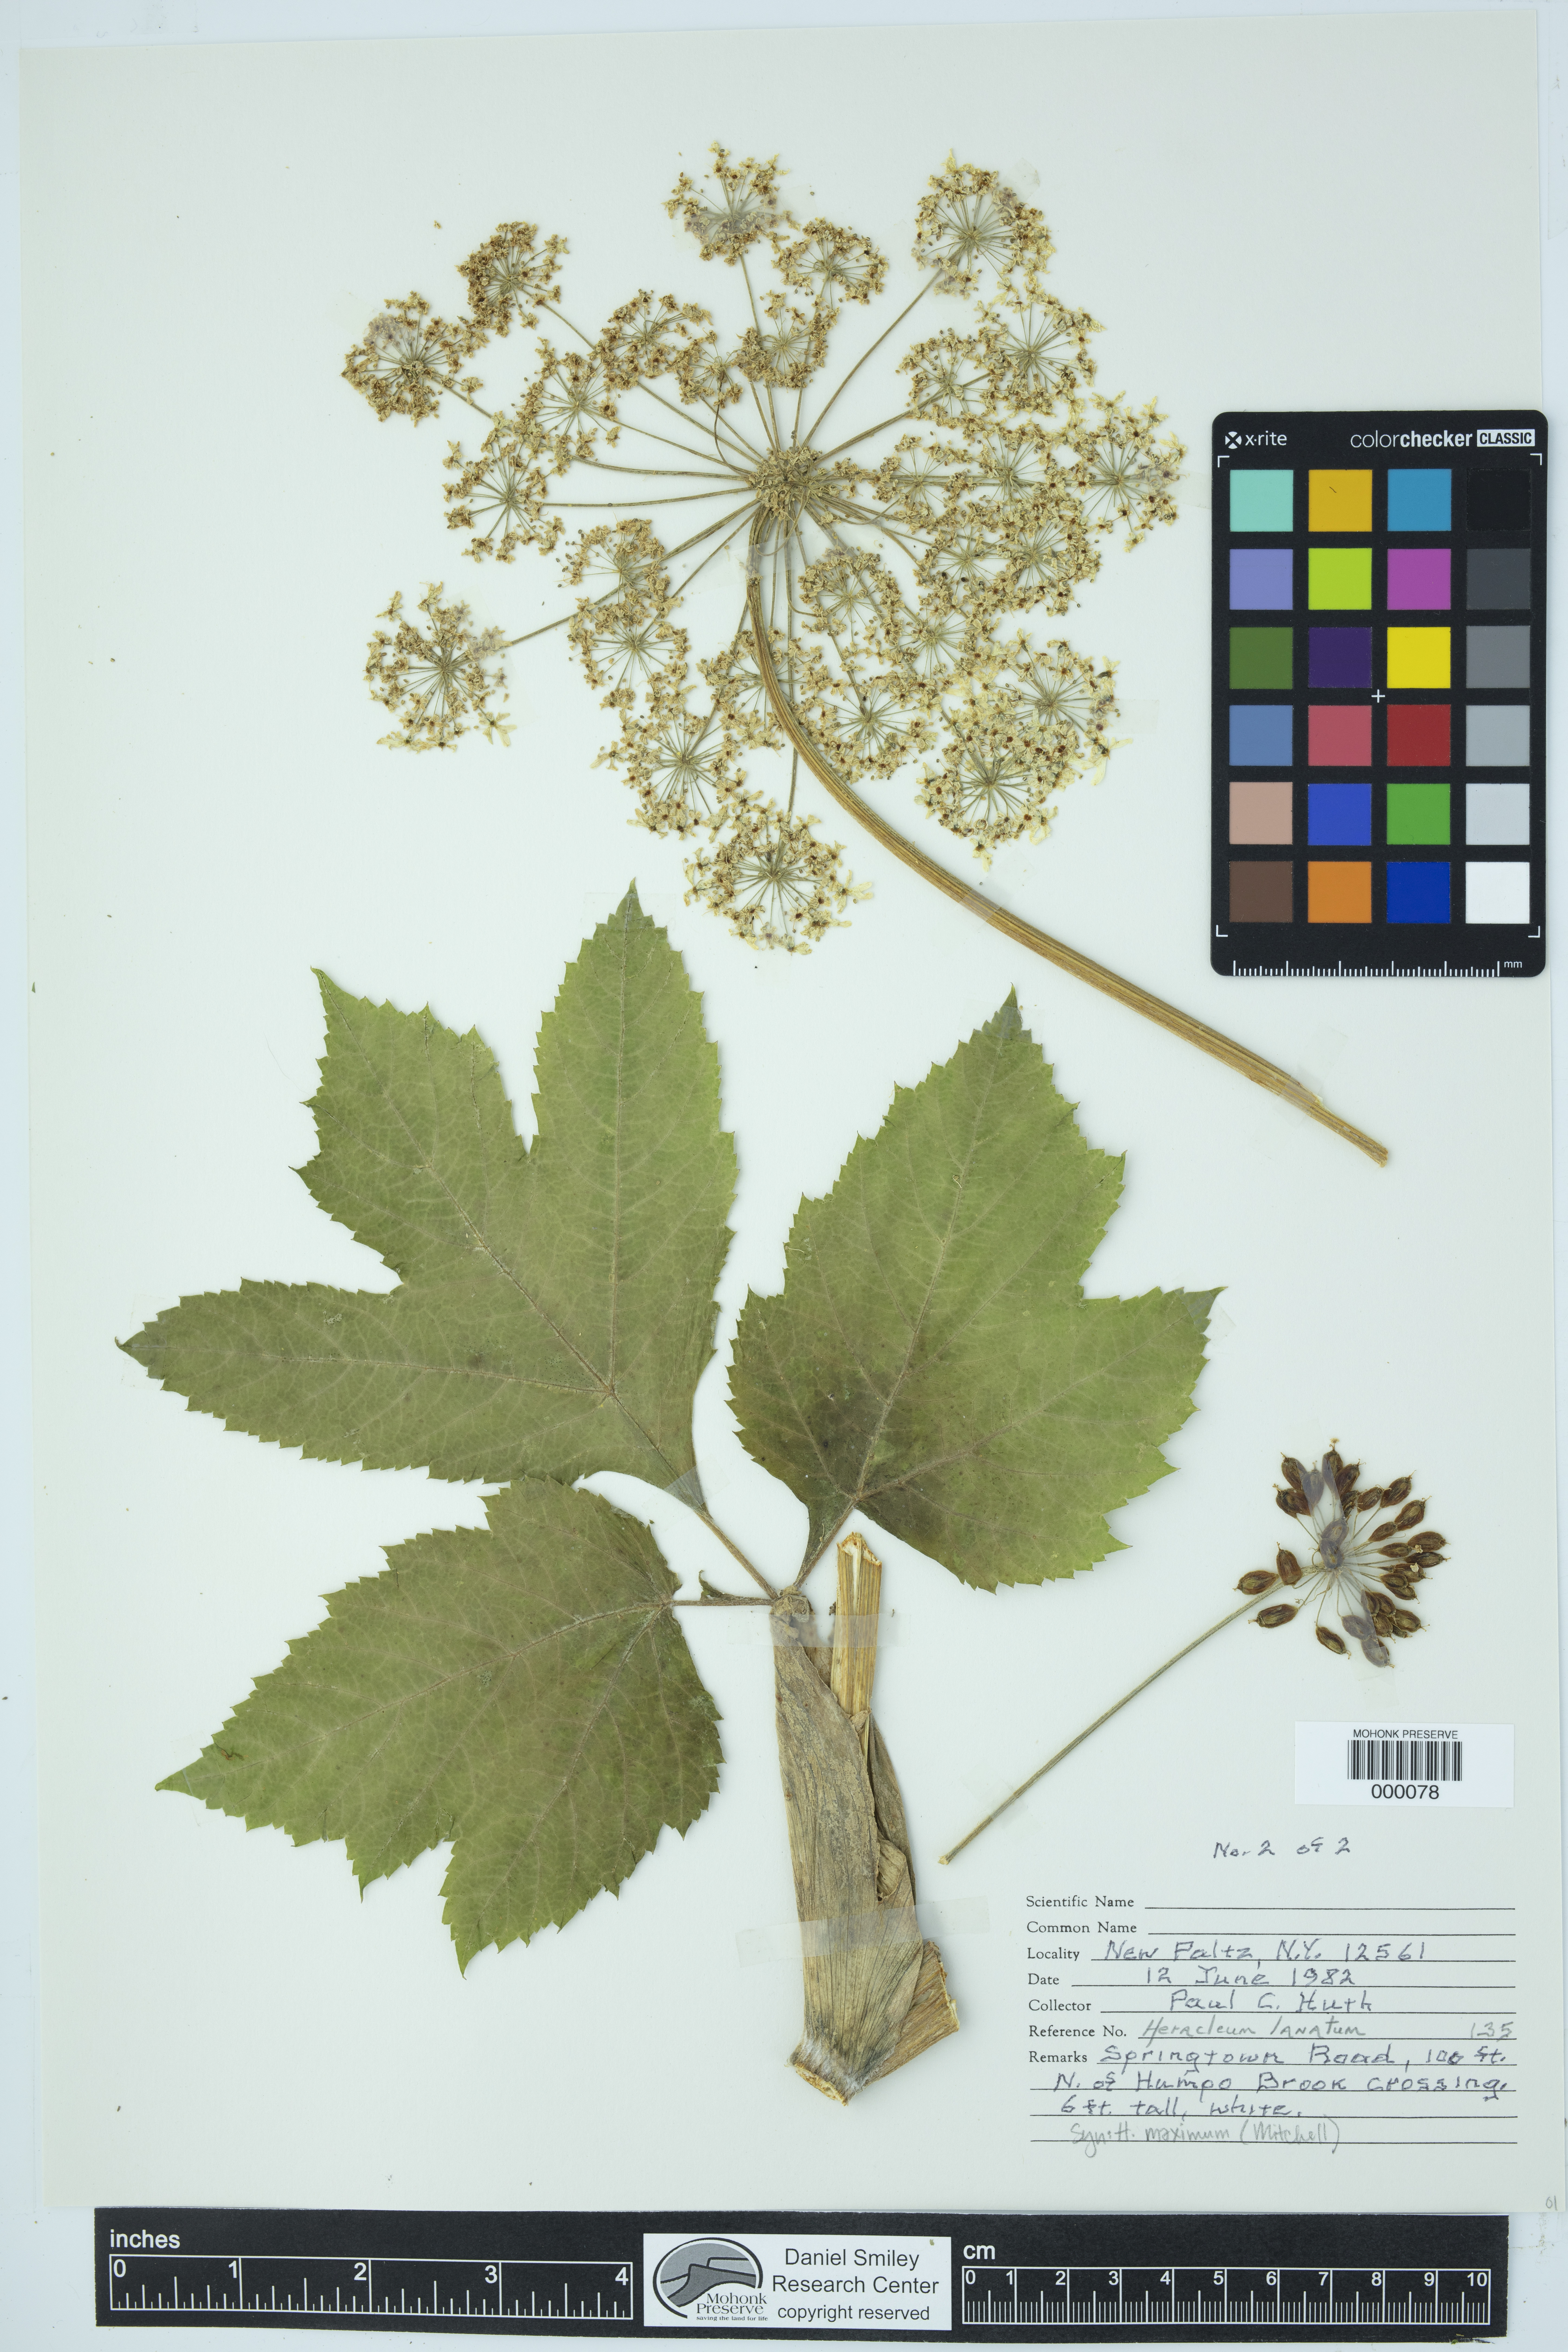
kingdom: Plantae
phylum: Tracheophyta
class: Magnoliopsida
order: Apiales
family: Apiaceae
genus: Heracleum
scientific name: Heracleum maximum
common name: American cow parsnip
